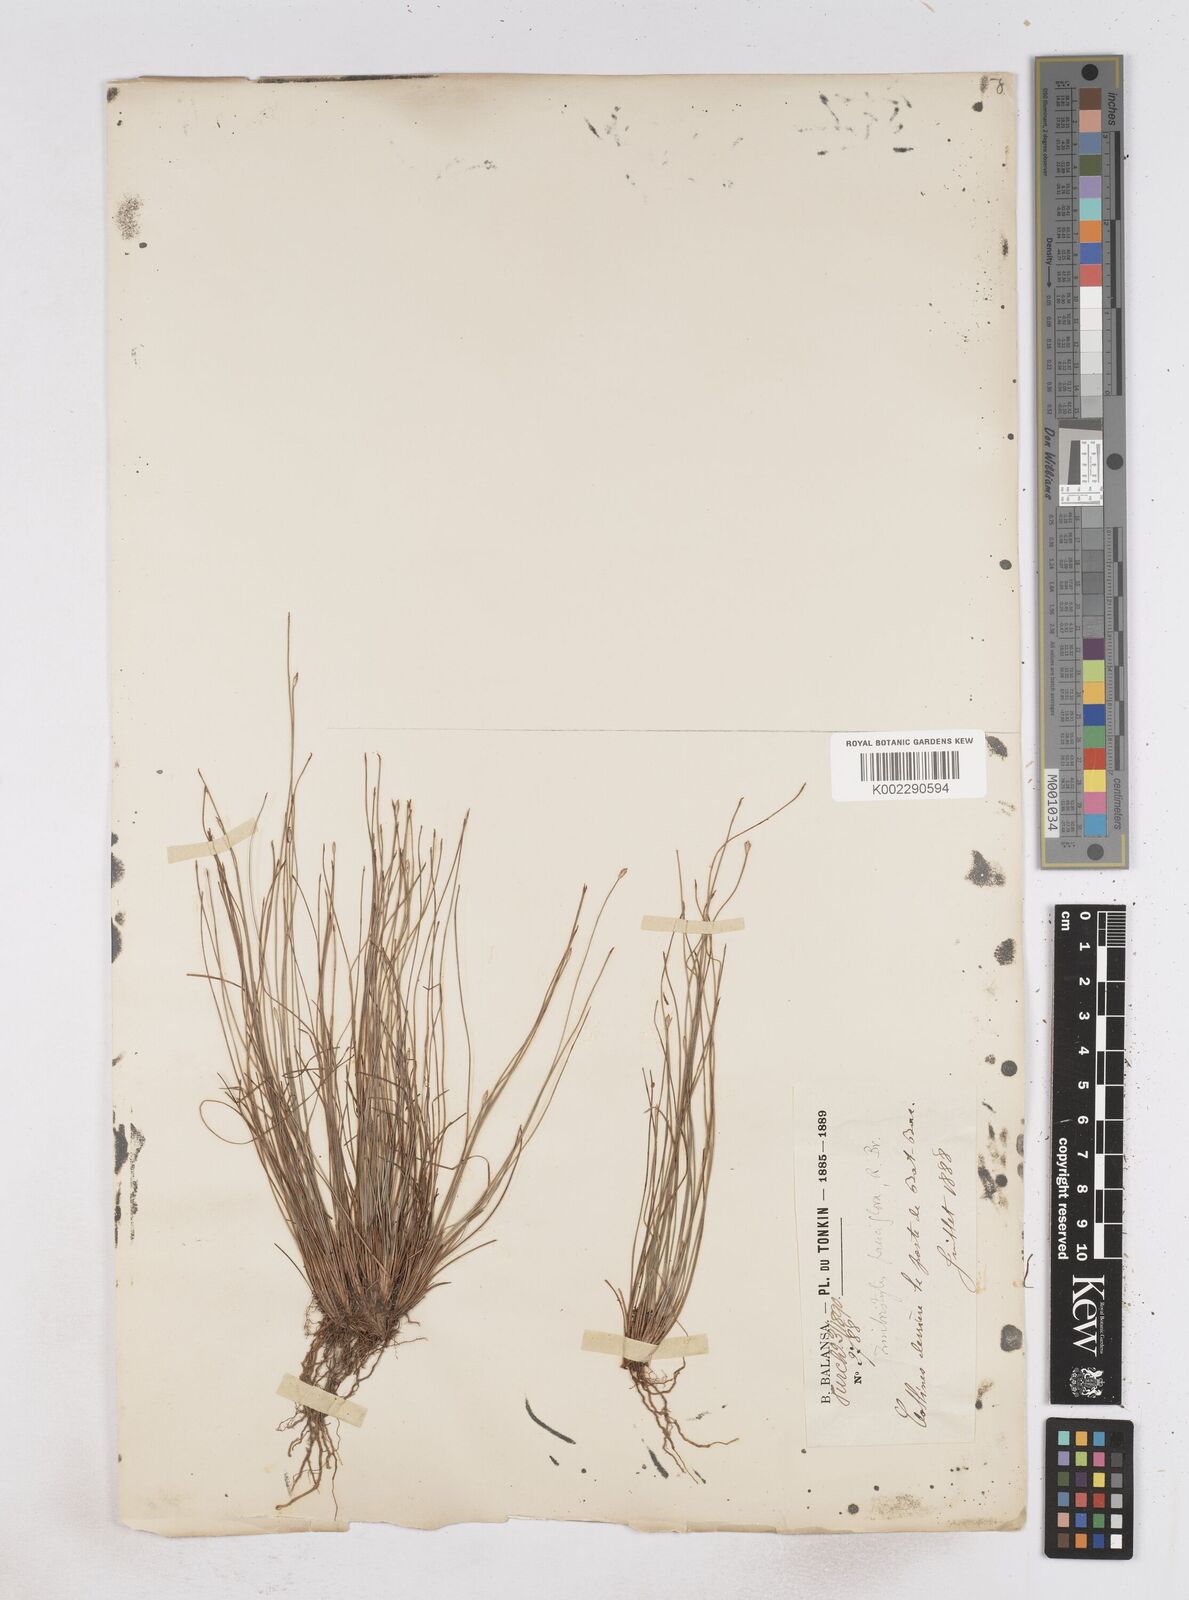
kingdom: Plantae
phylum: Tracheophyta
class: Liliopsida
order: Poales
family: Cyperaceae
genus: Fimbristylis
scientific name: Fimbristylis pauciflora
